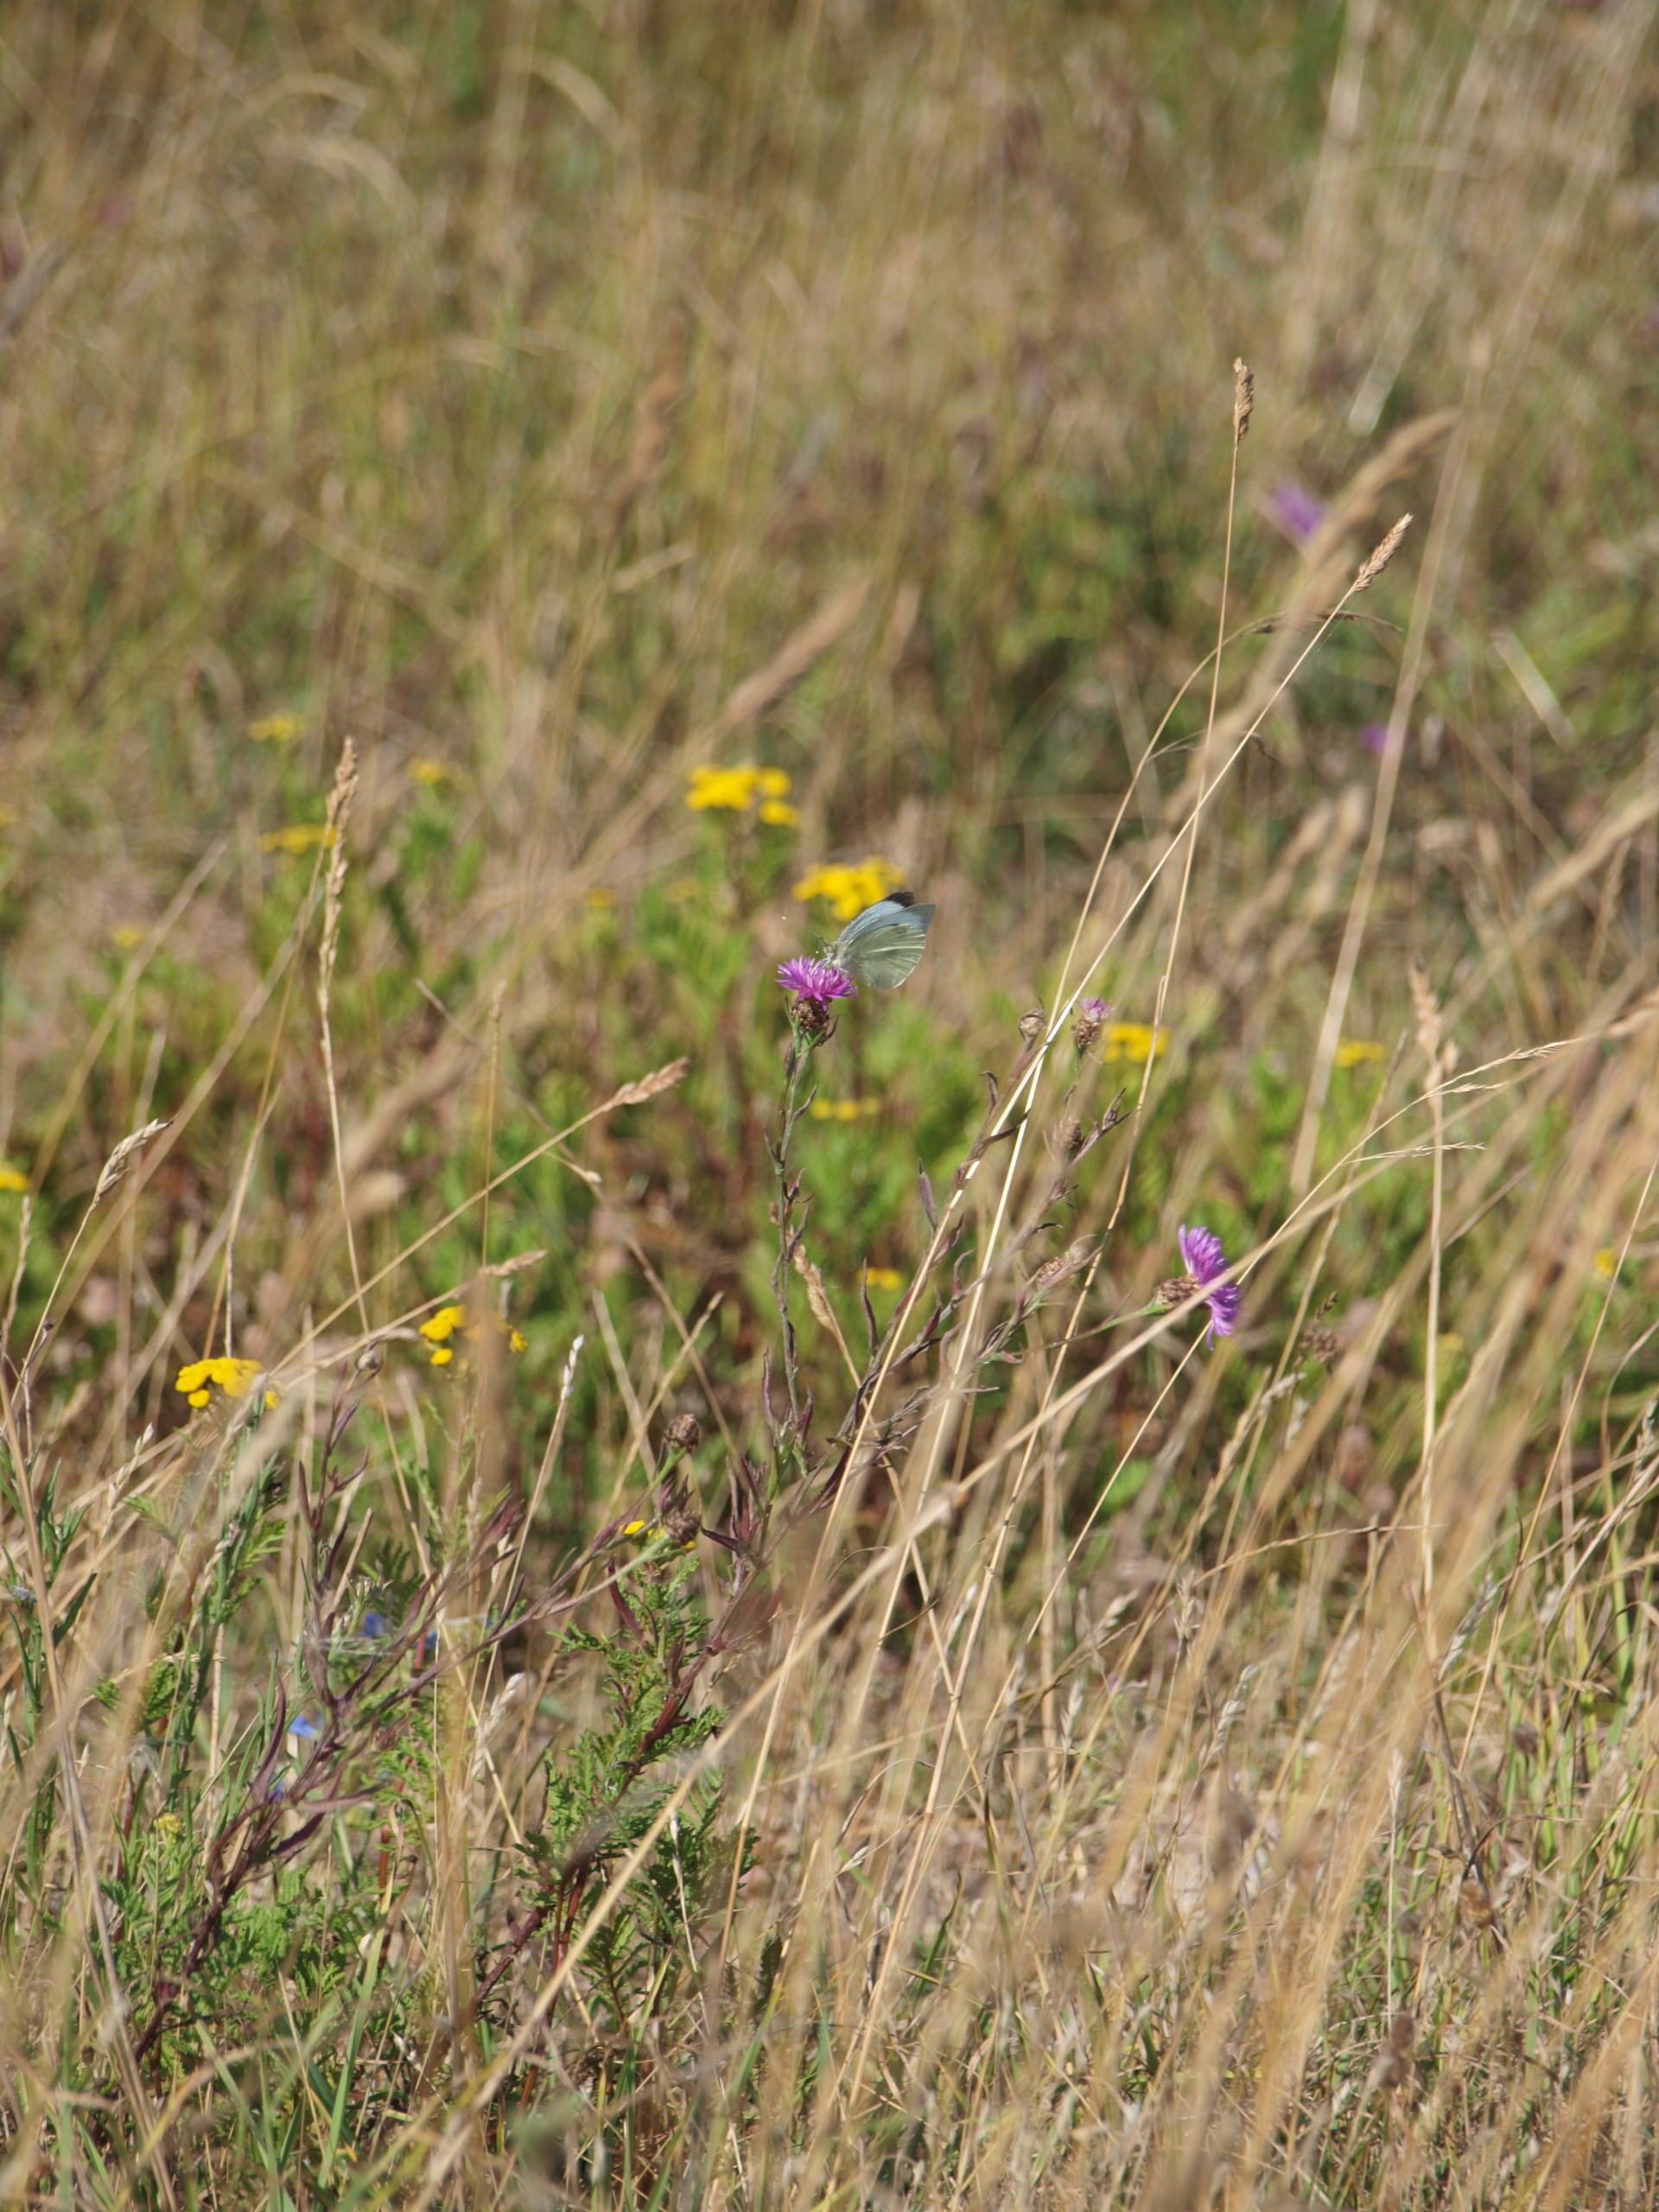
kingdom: Animalia
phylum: Arthropoda
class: Insecta
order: Lepidoptera
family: Pieridae
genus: Pieris
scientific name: Pieris brassicae
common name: Stor kålsommerfugl
